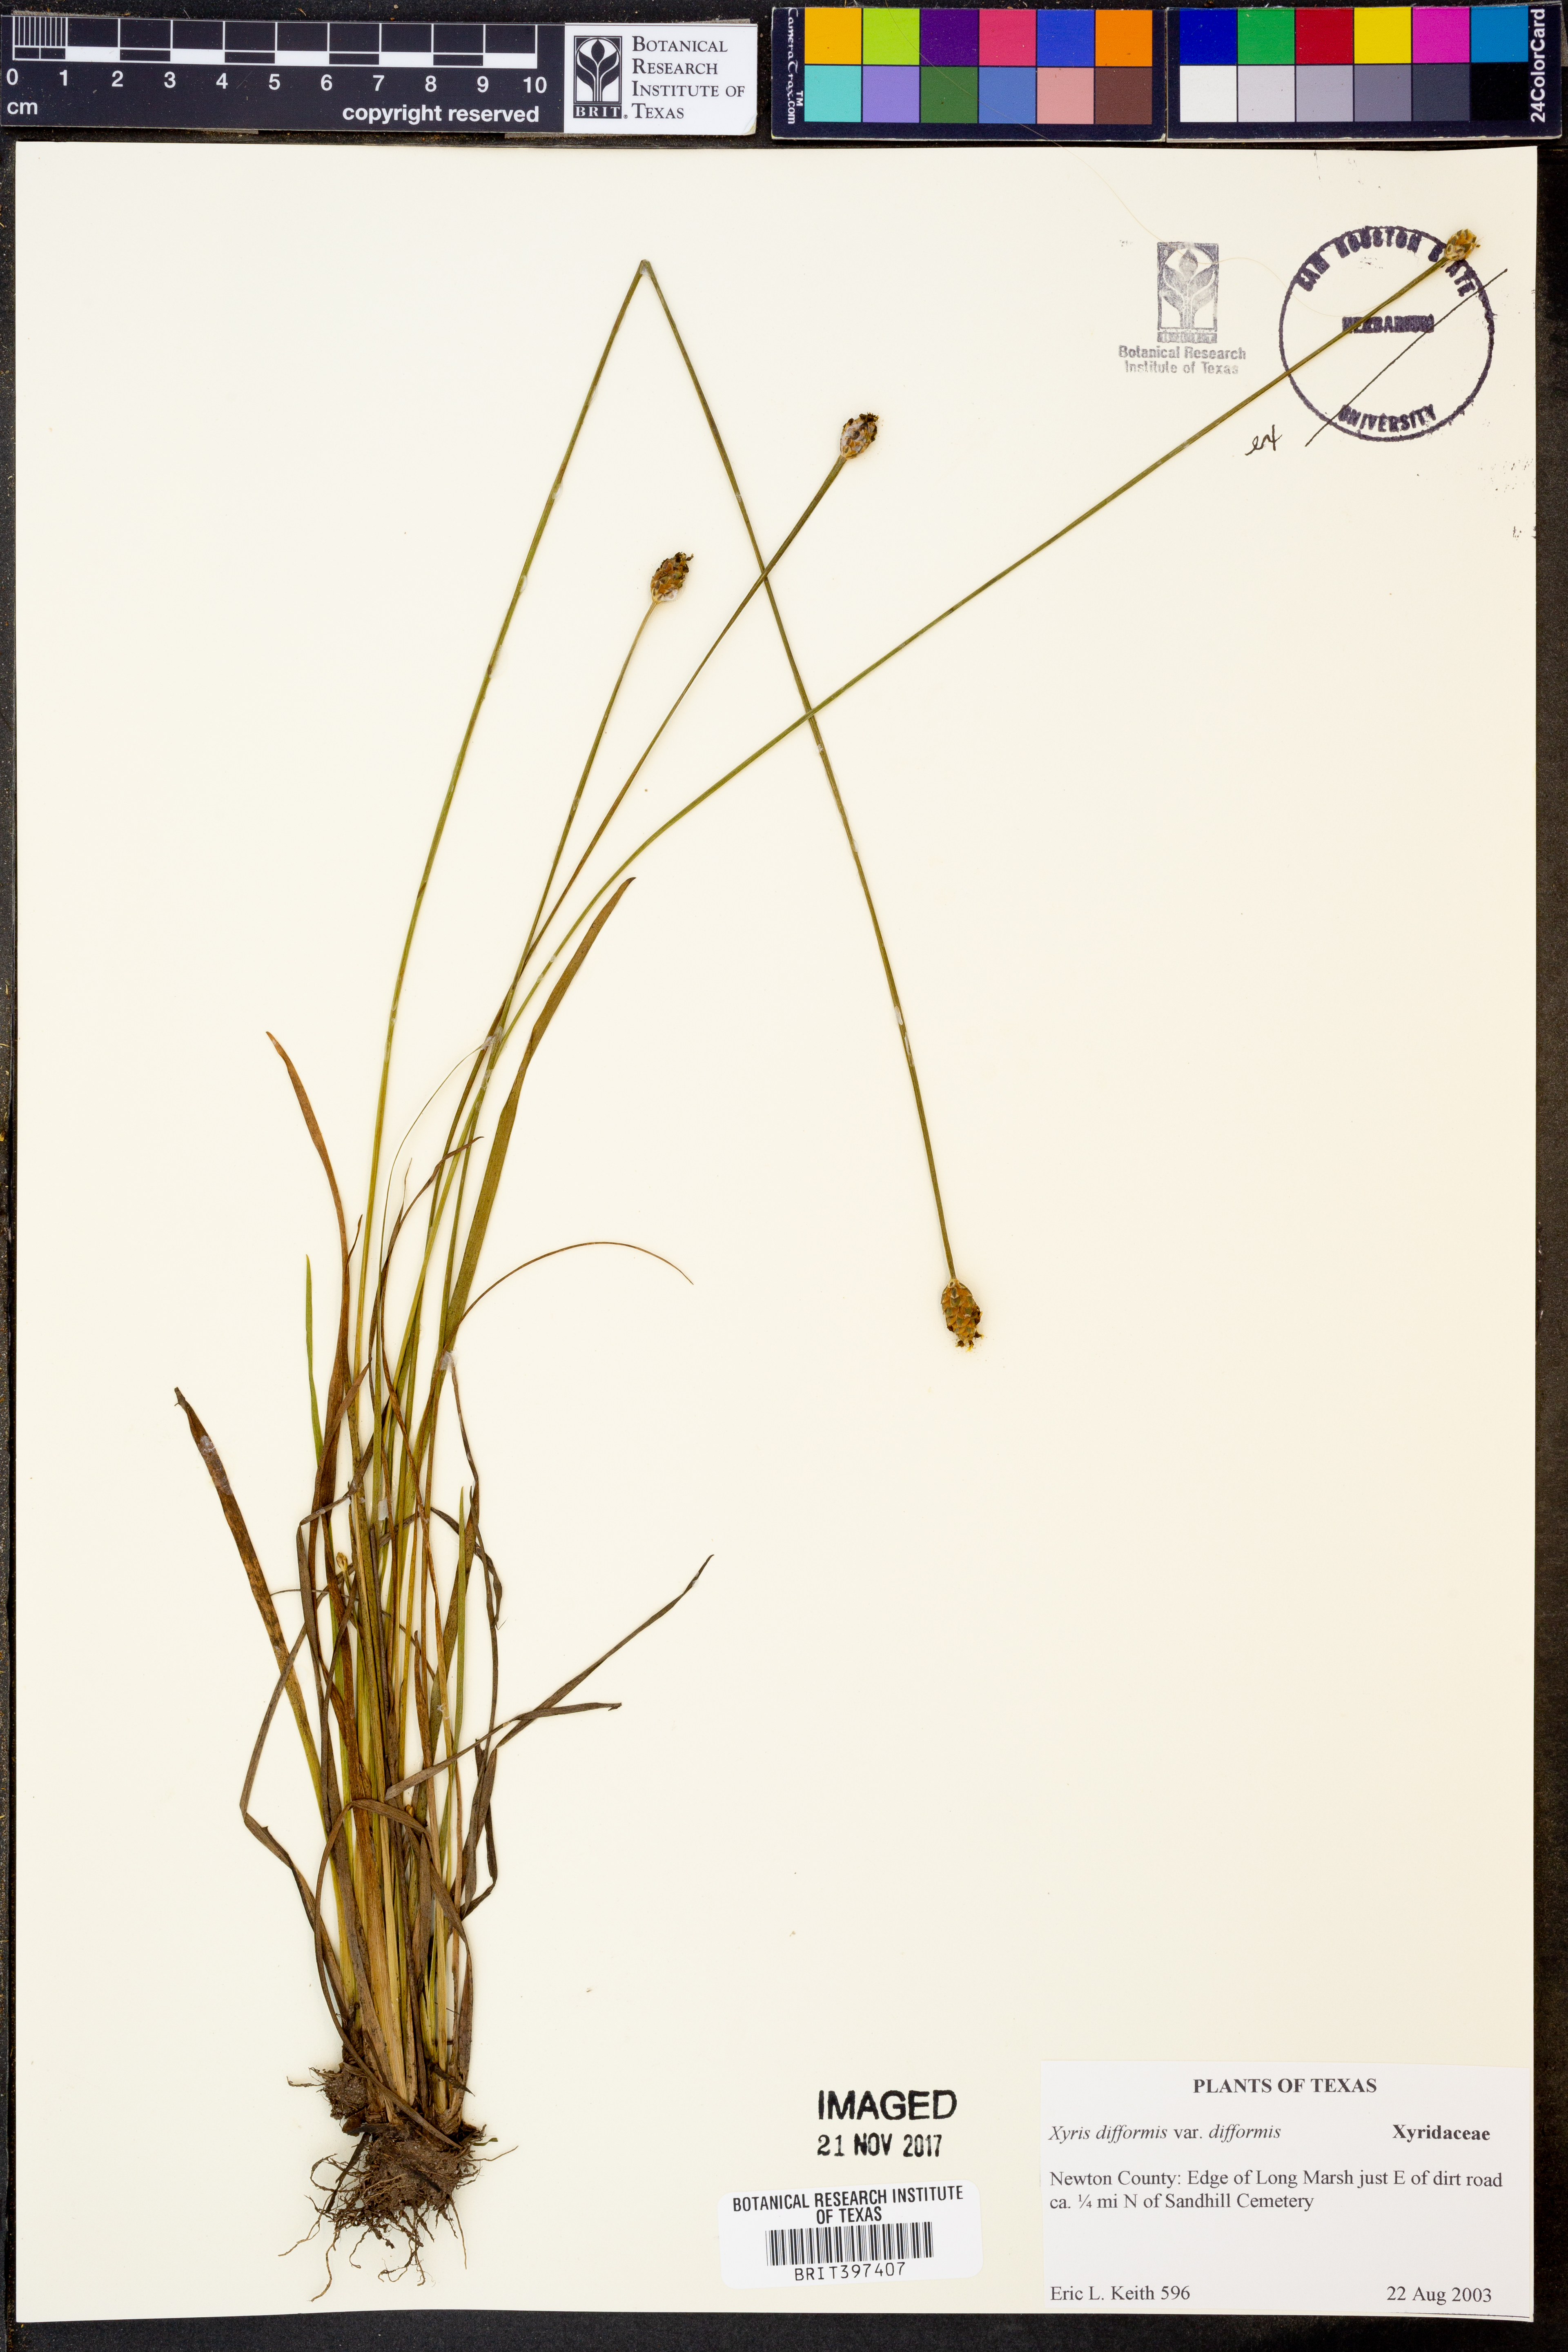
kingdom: Plantae
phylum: Tracheophyta
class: Liliopsida
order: Poales
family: Xyridaceae
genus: Xyris
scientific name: Xyris difformis
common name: Bog yellow-eyed-grass
